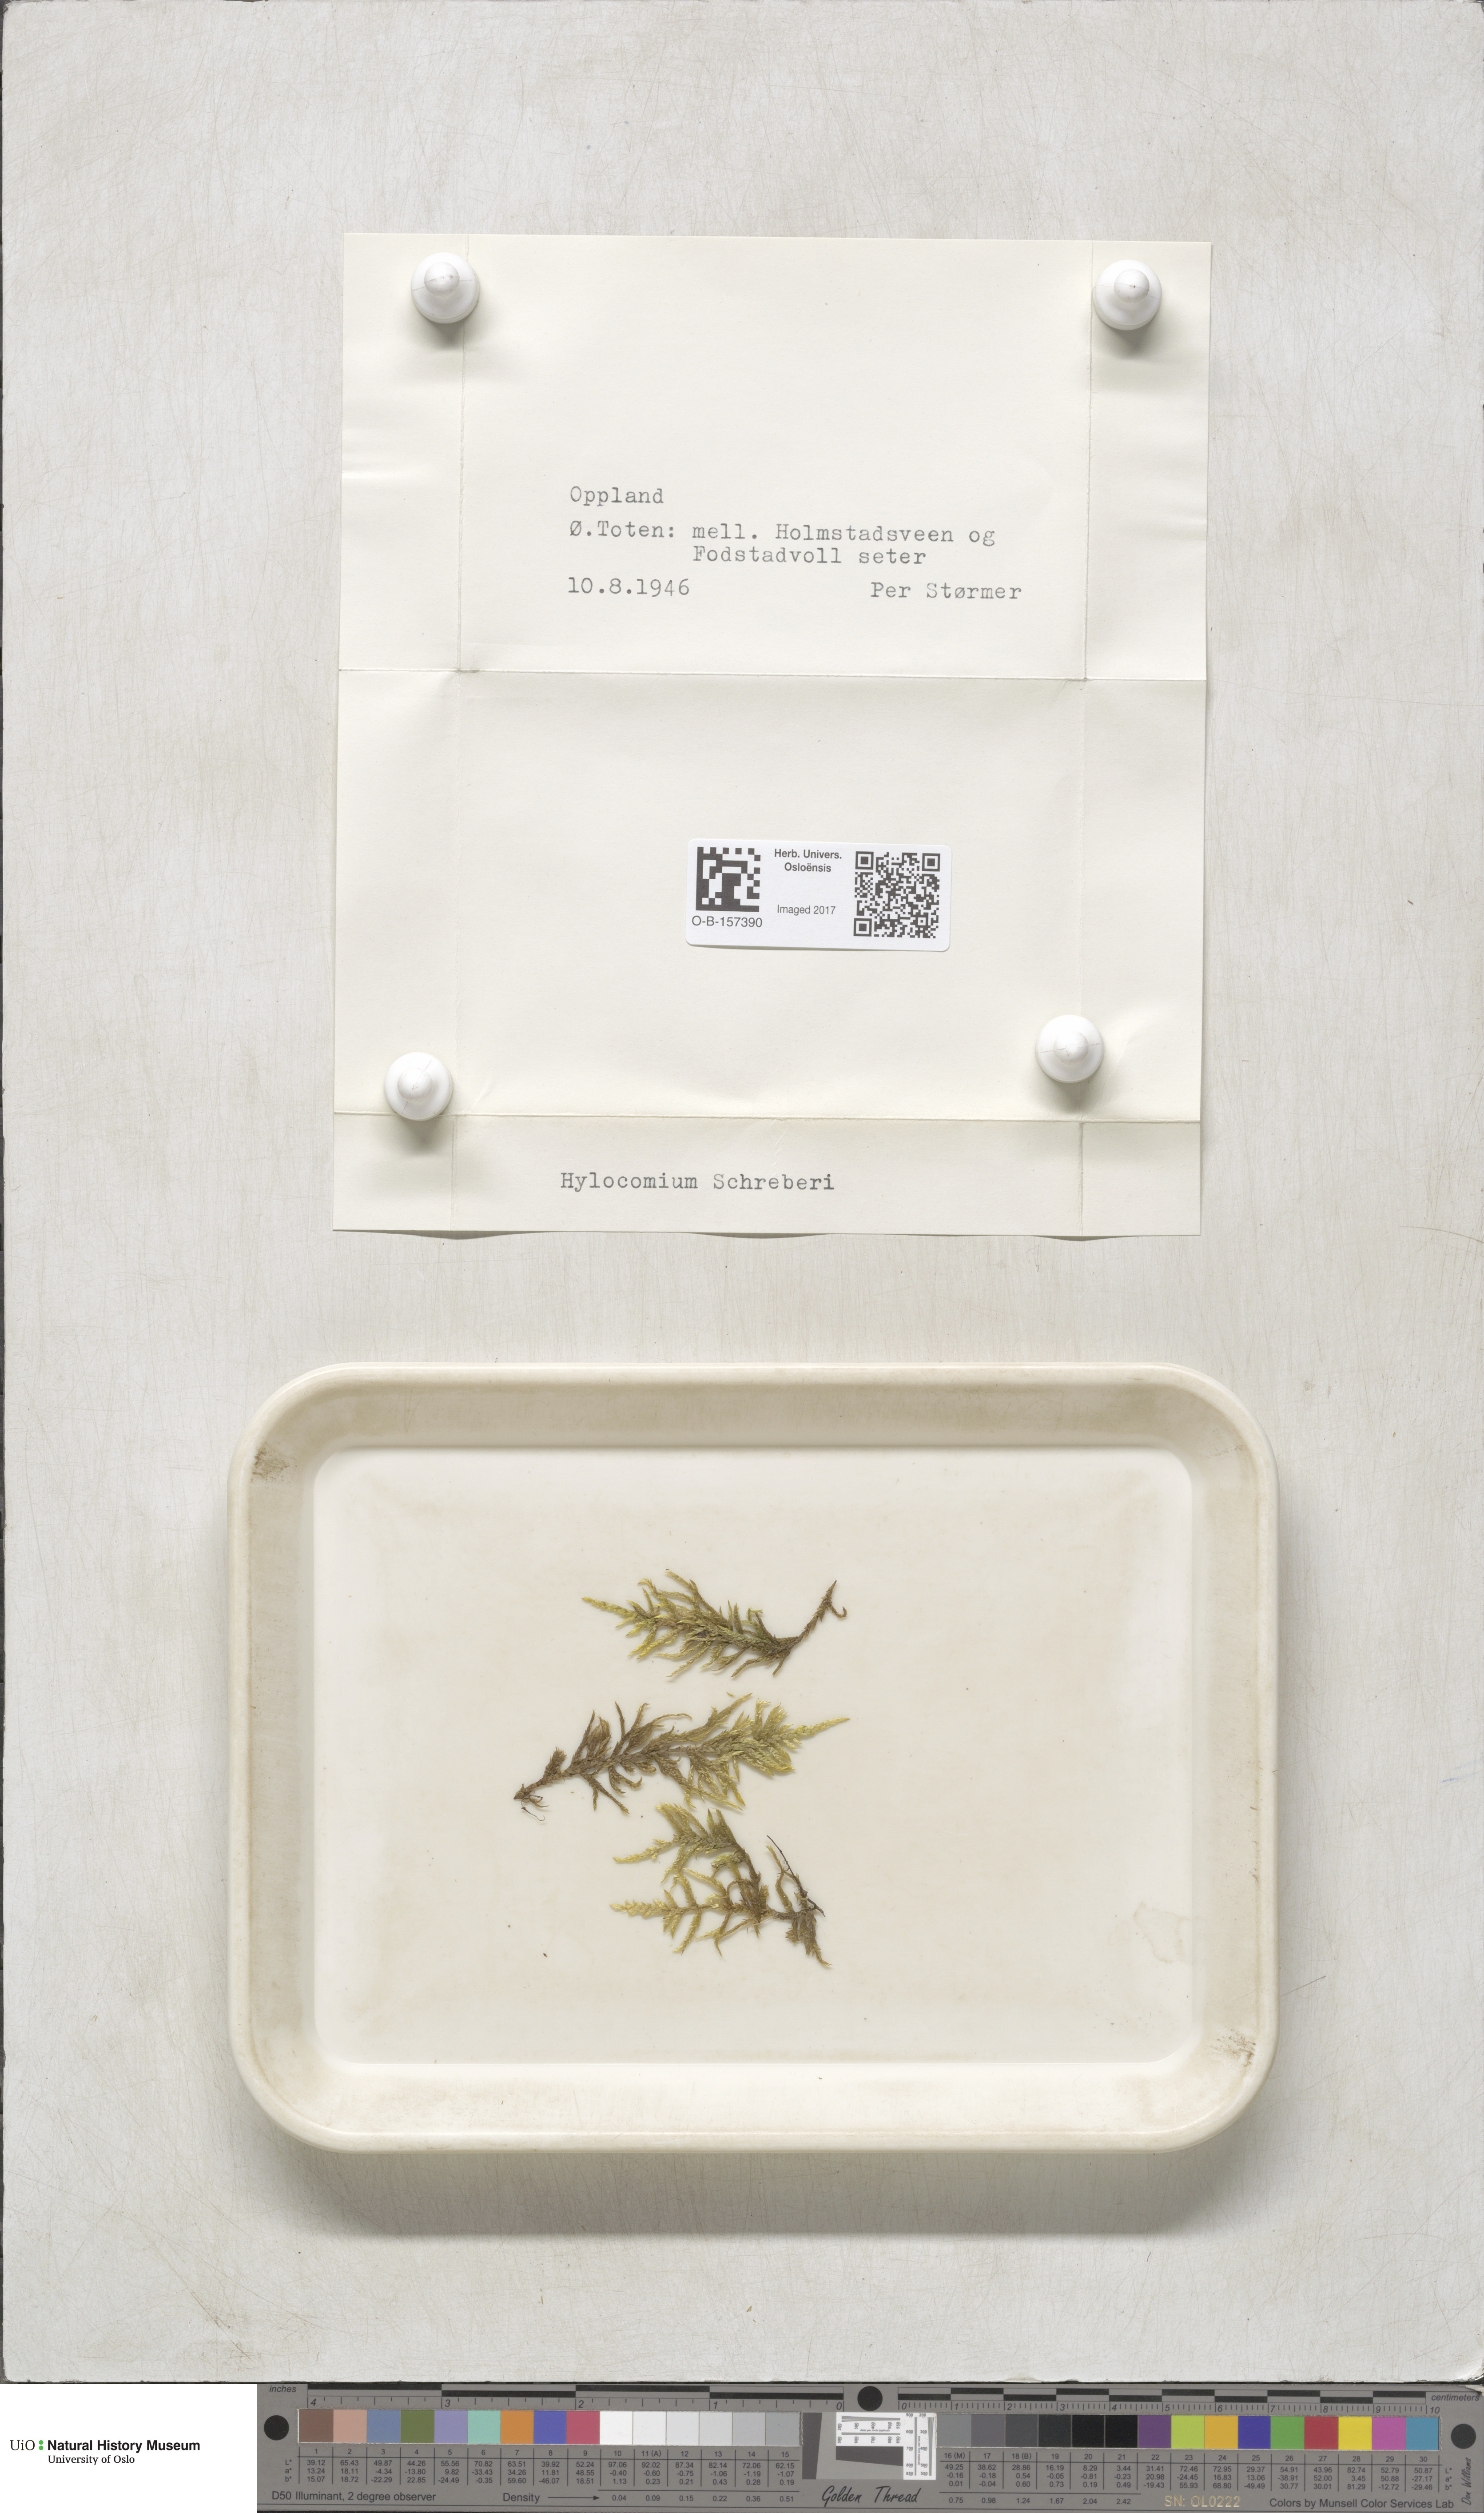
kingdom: Plantae
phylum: Bryophyta
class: Bryopsida
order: Hypnales
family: Hylocomiaceae
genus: Pleurozium
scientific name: Pleurozium schreberi
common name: Red-stemmed feather moss
